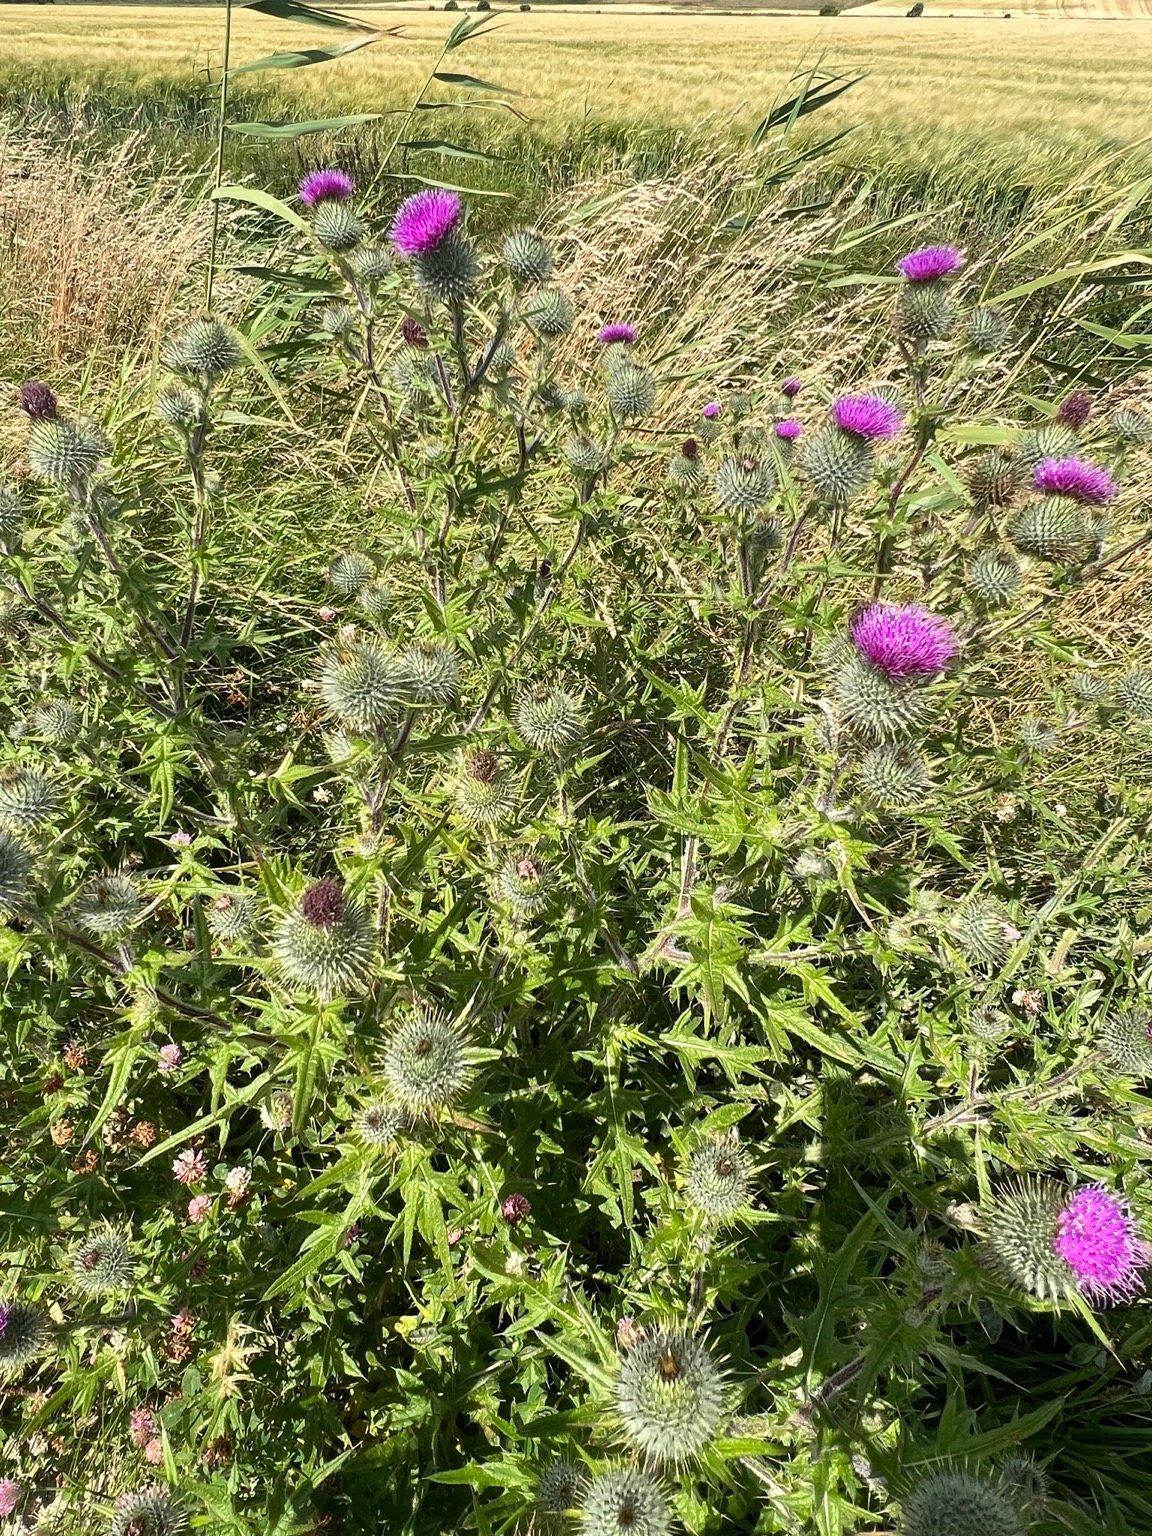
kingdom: Plantae
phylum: Tracheophyta
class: Magnoliopsida
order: Asterales
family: Asteraceae
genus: Cirsium
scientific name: Cirsium vulgare
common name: Horse-tidsel
